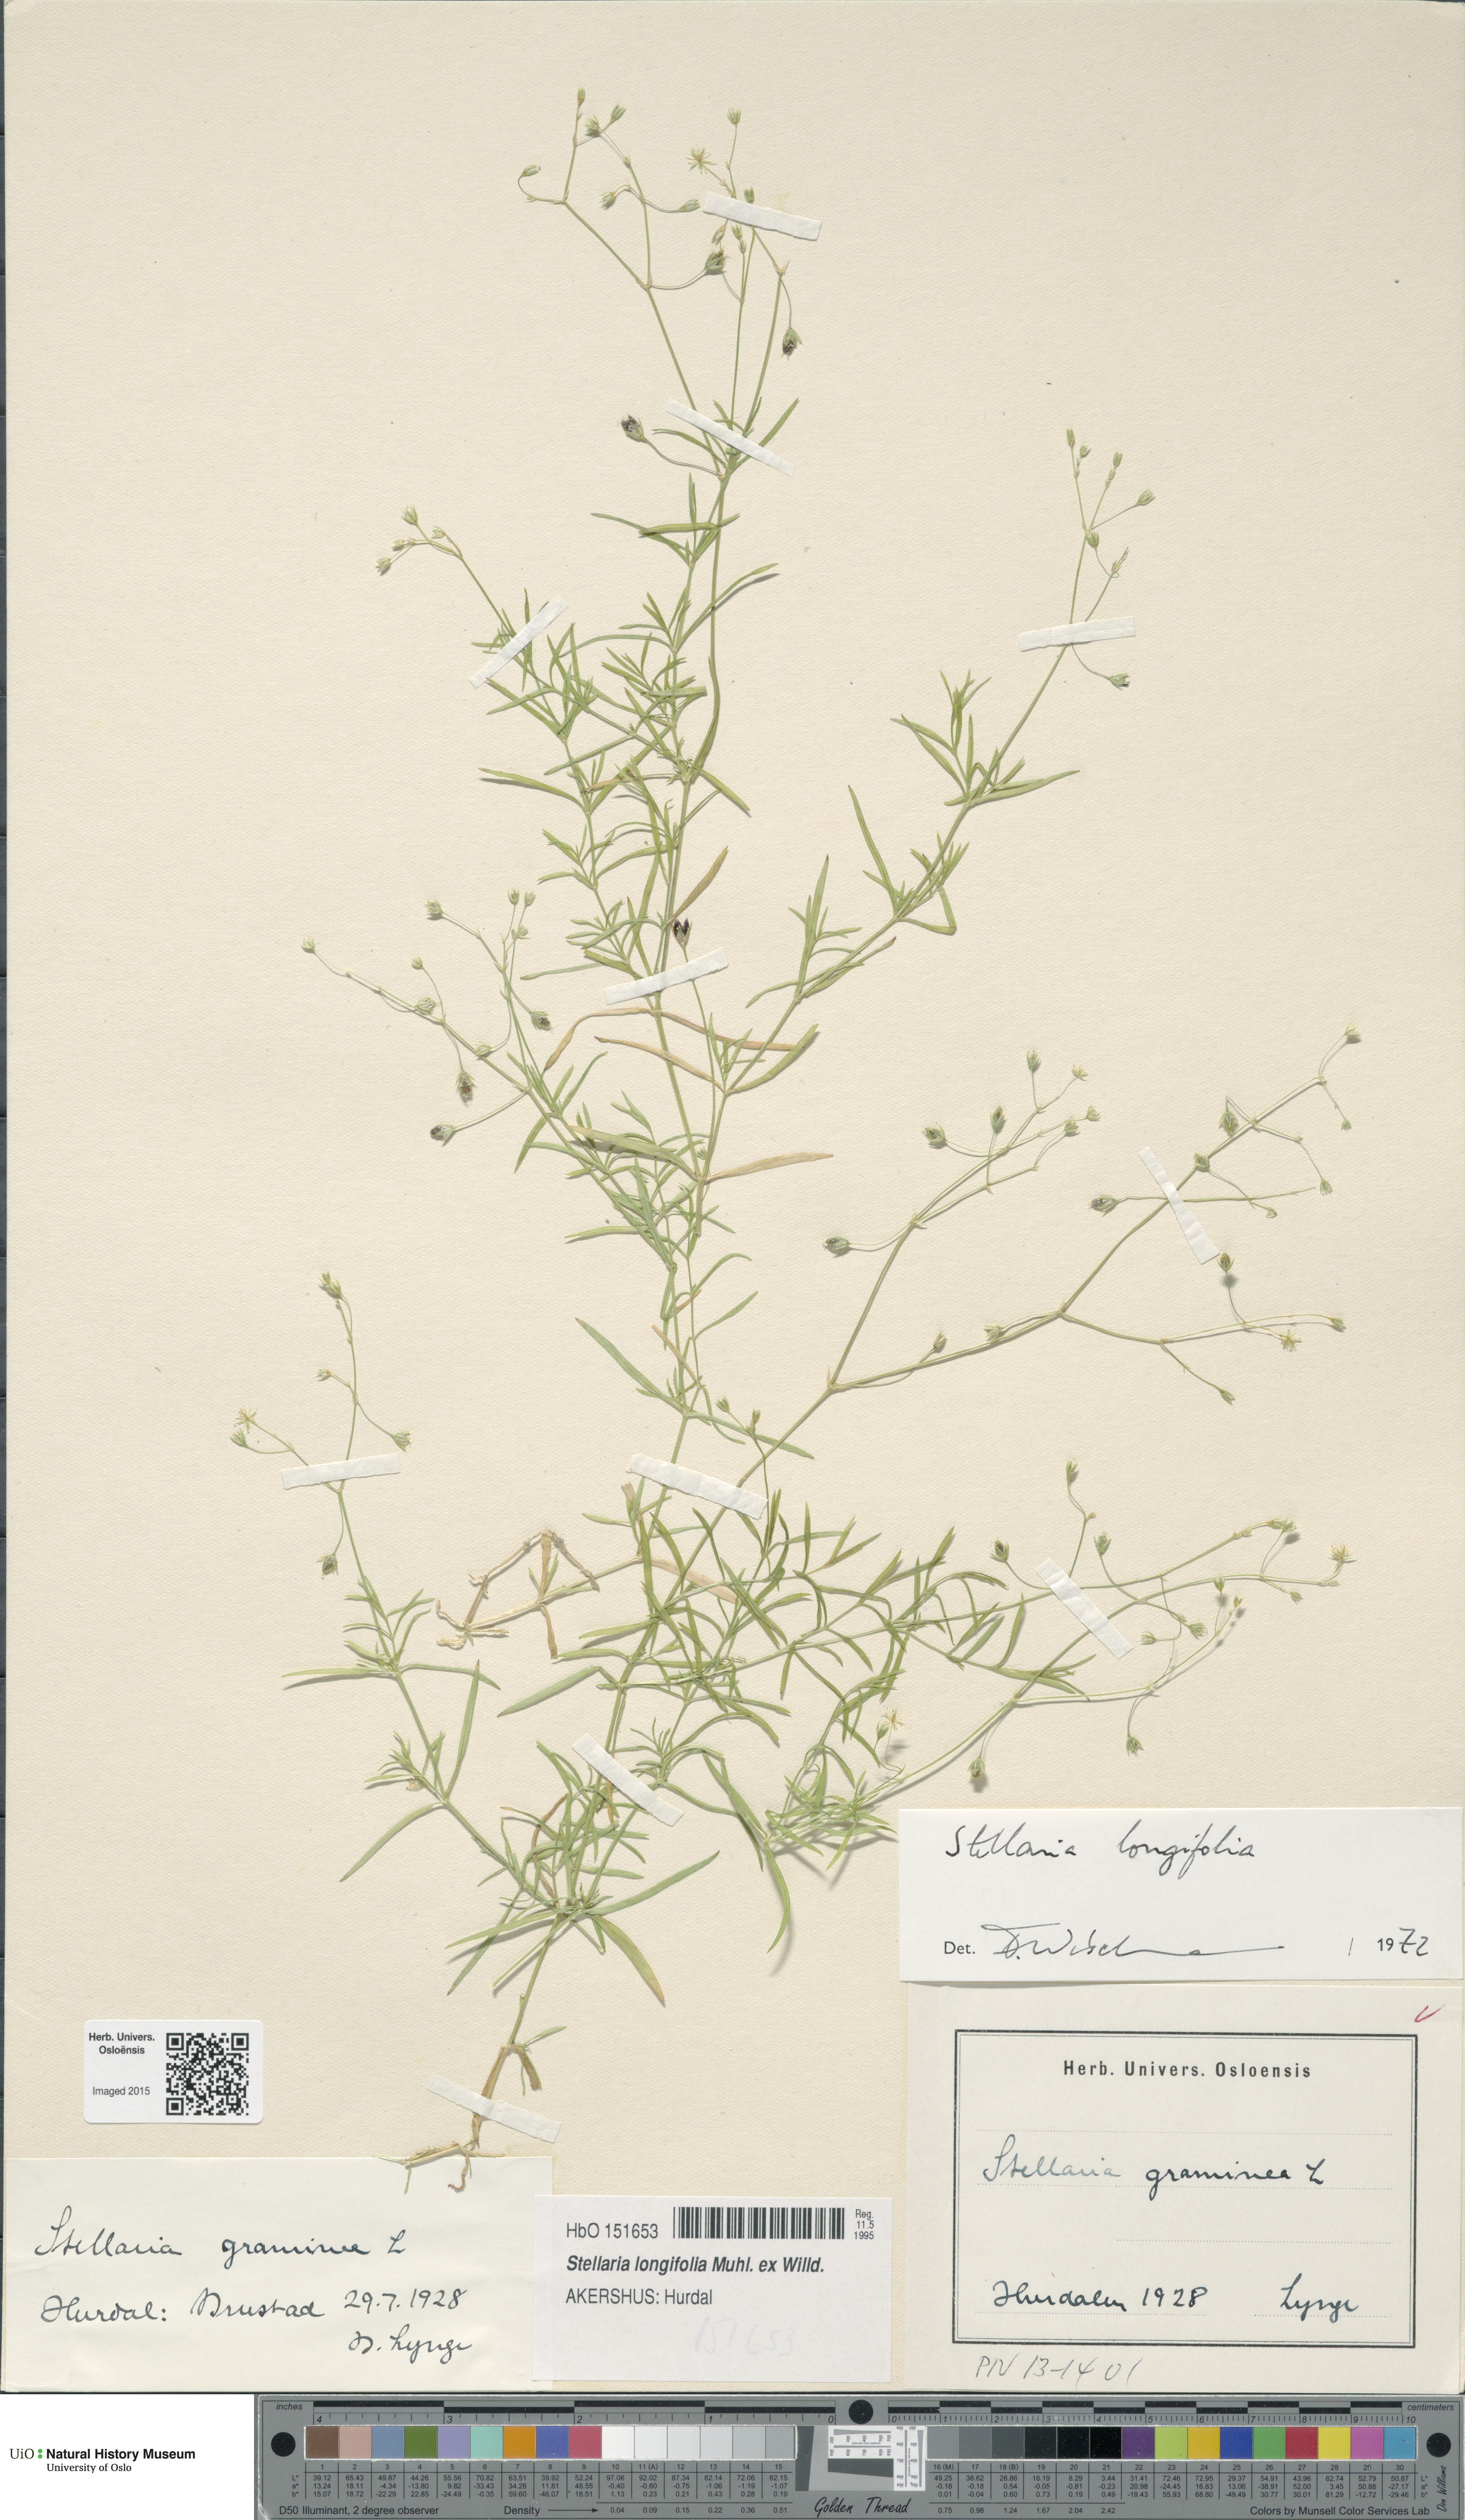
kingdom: Plantae
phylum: Tracheophyta
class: Magnoliopsida
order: Caryophyllales
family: Caryophyllaceae
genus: Stellaria
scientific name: Stellaria longifolia
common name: Long-leaved chickweed
